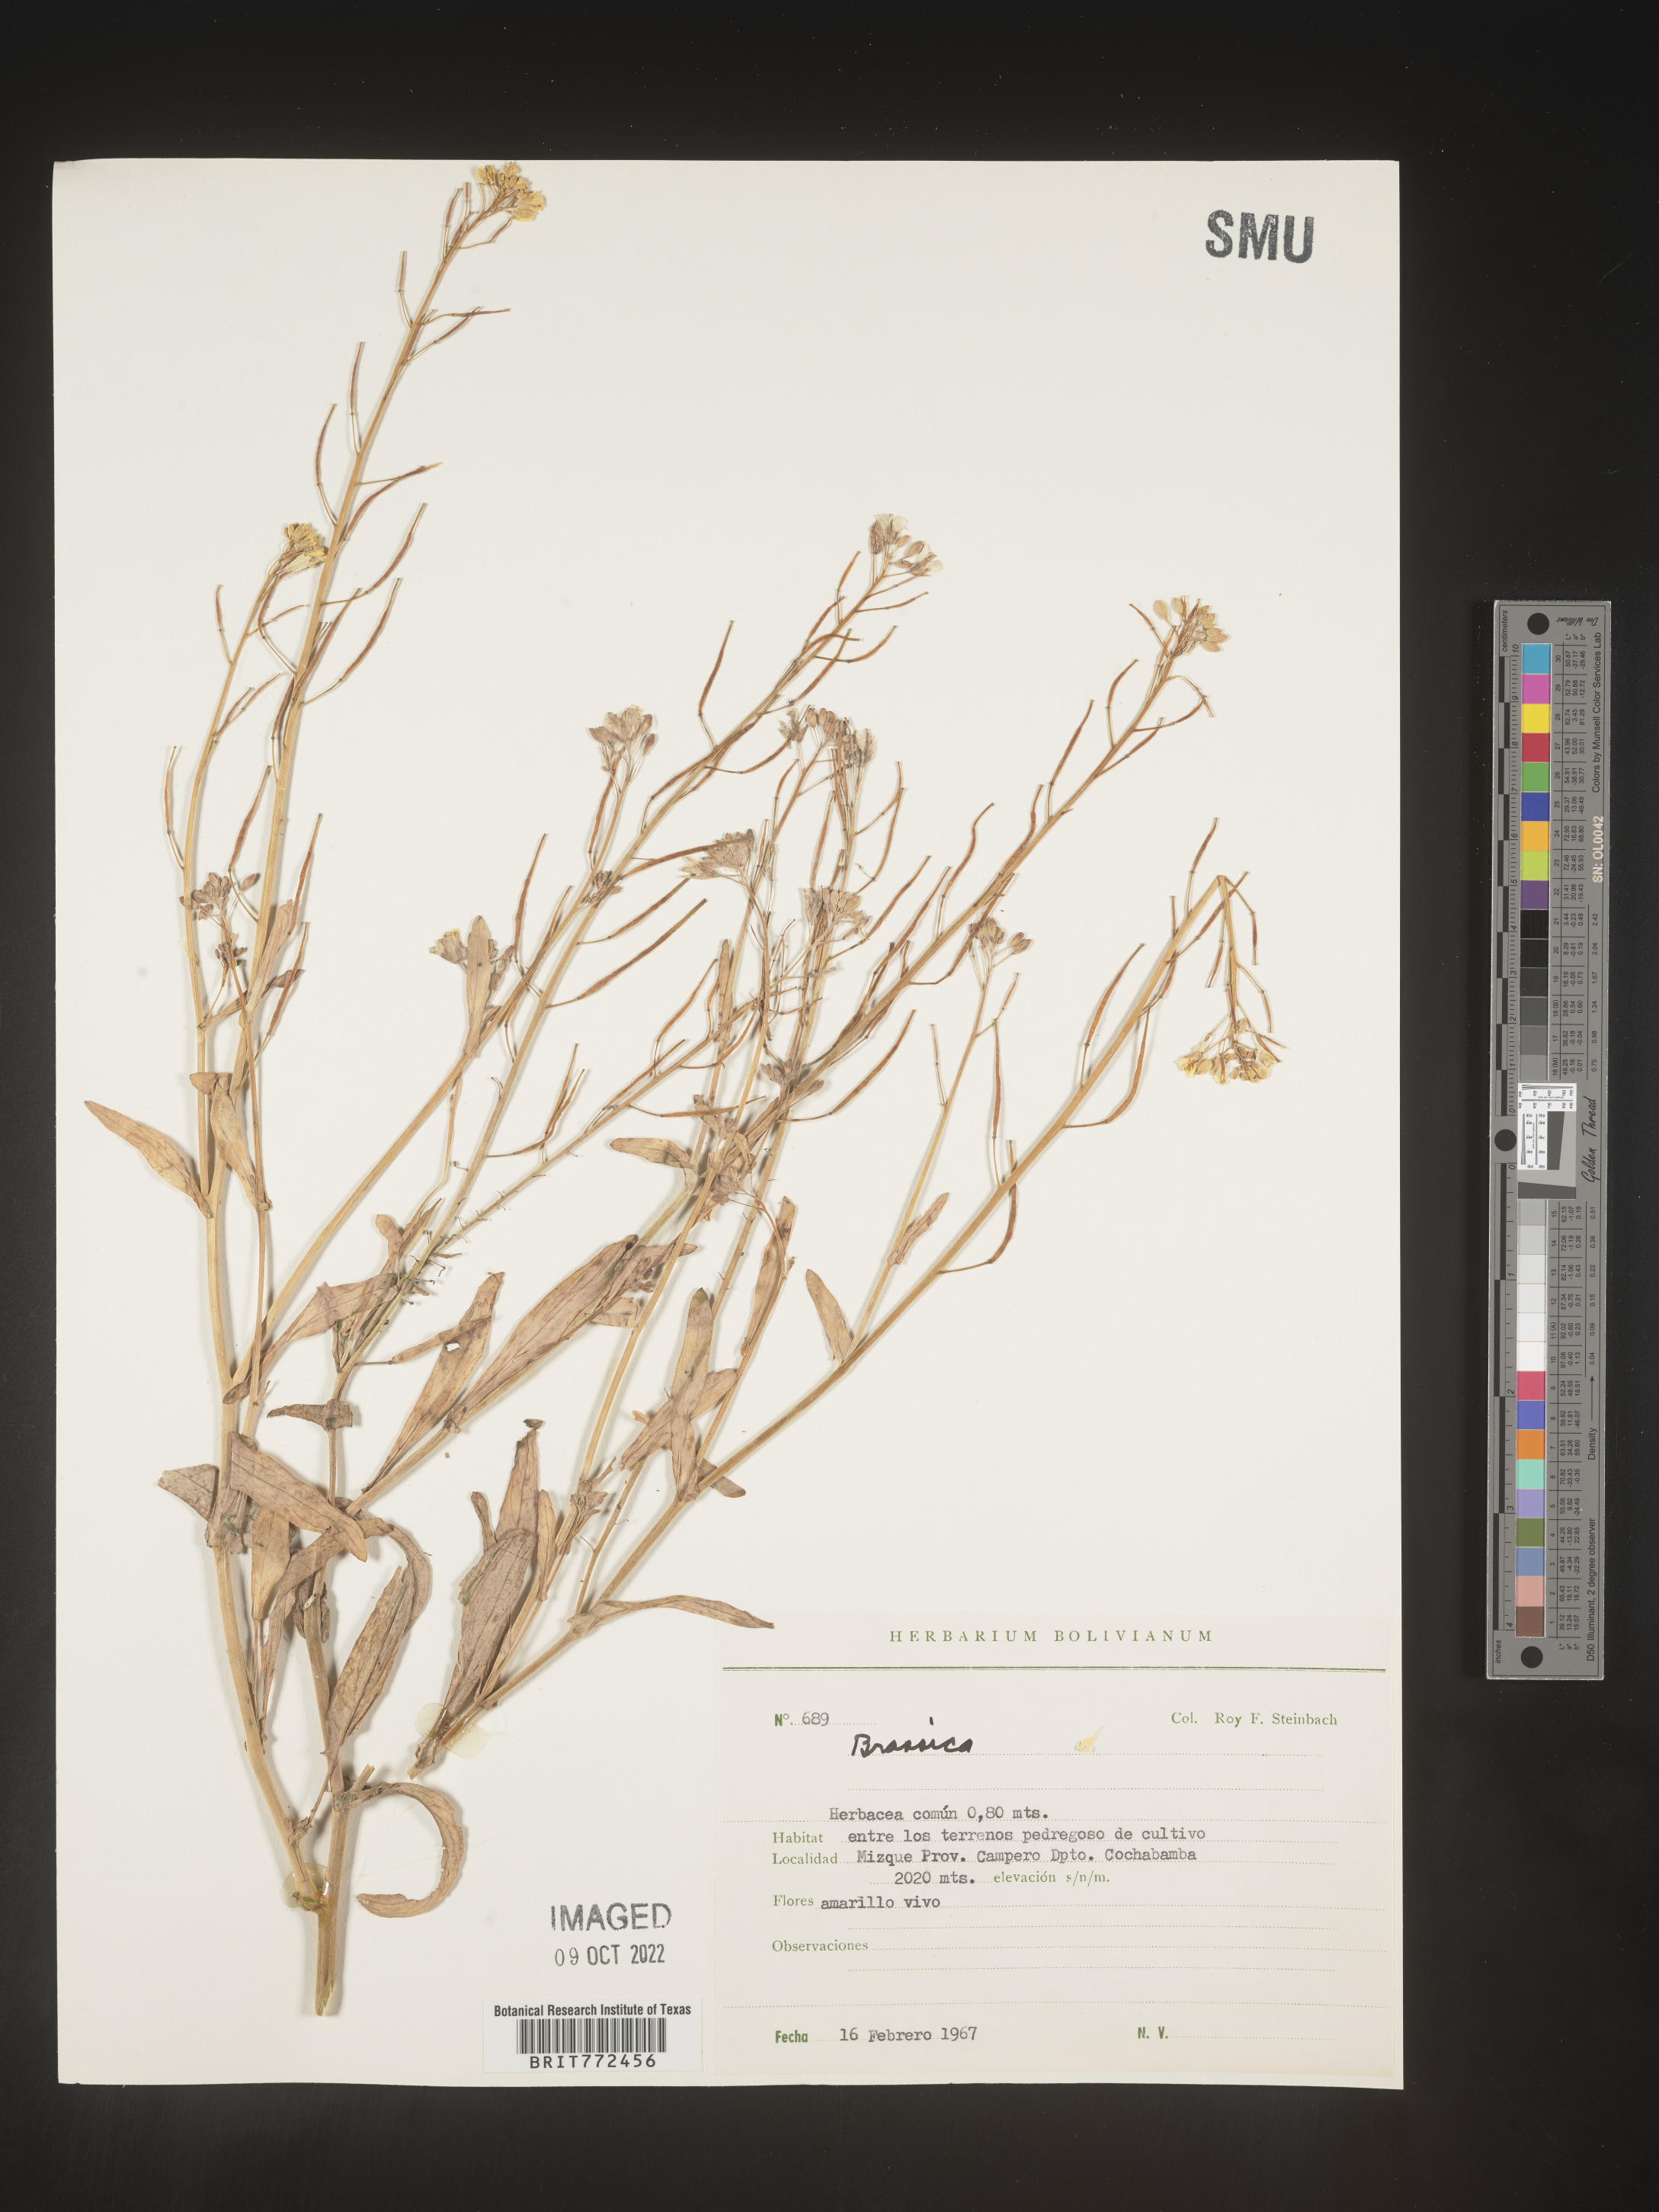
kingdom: Plantae
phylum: Tracheophyta
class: Magnoliopsida
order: Brassicales
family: Brassicaceae
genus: Brassica
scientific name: Brassica
